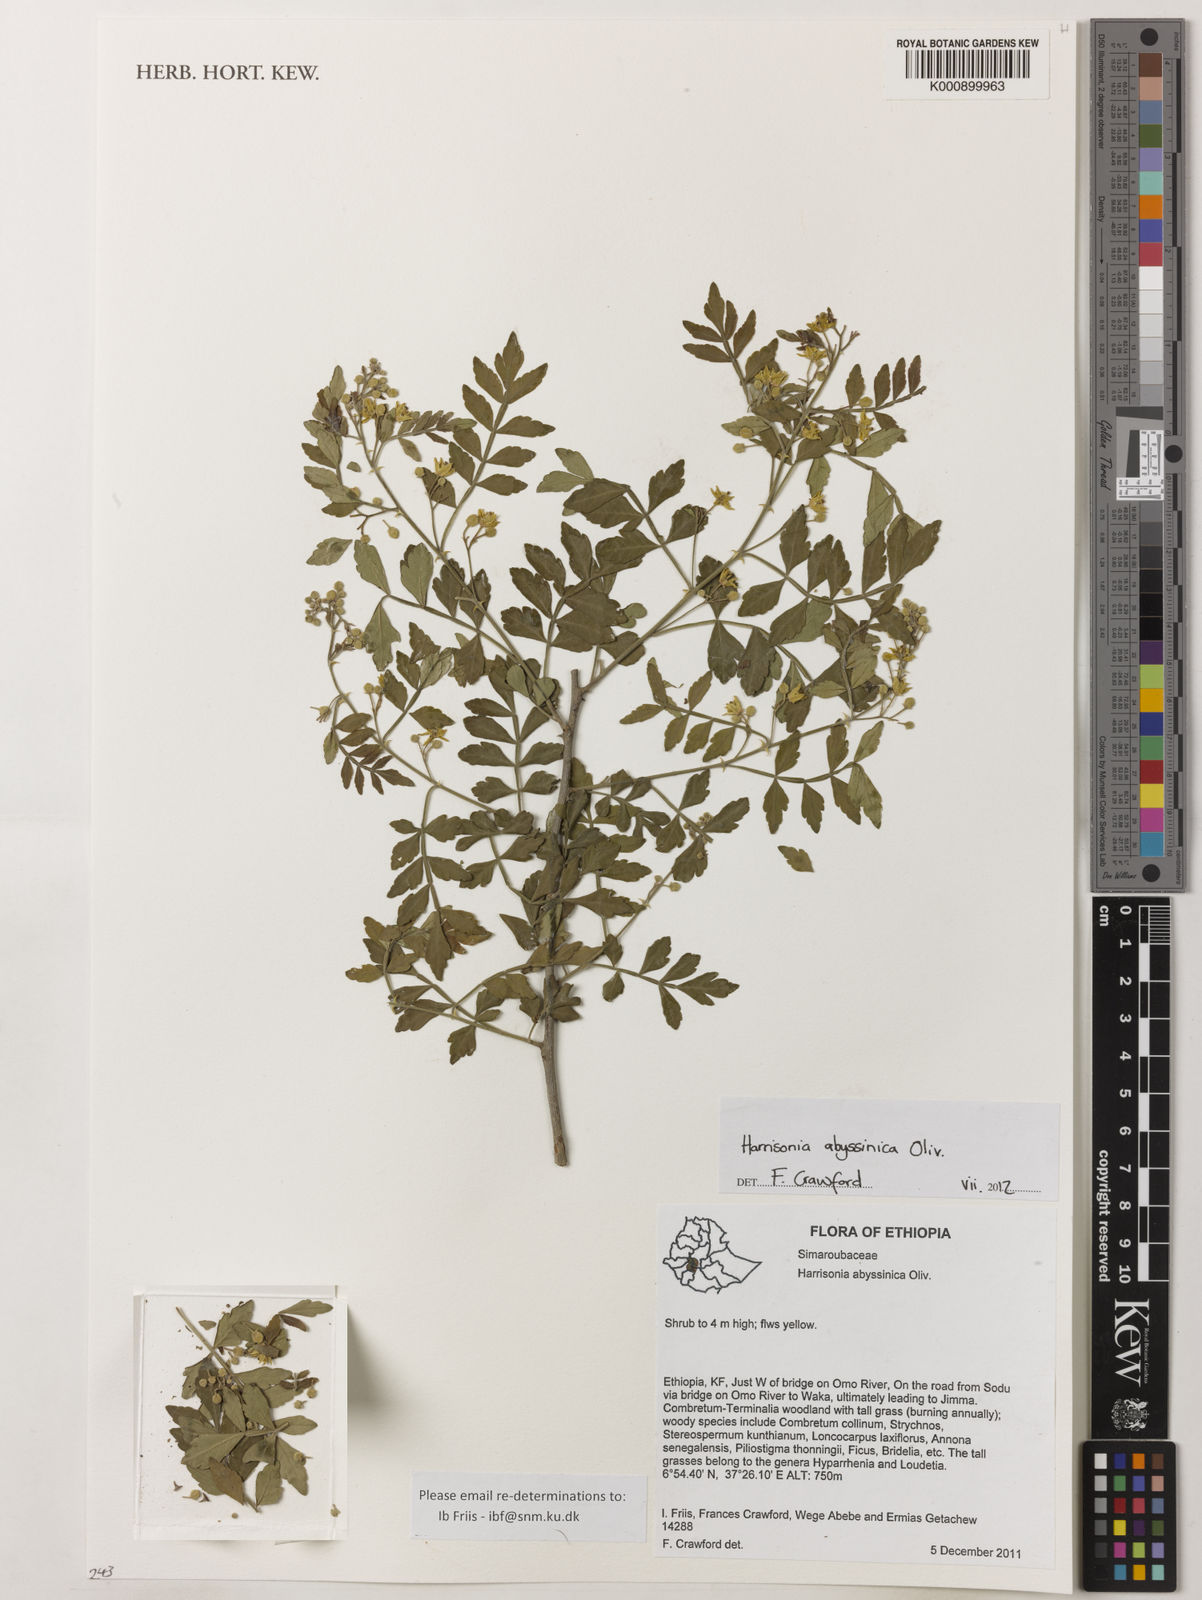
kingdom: Plantae
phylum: Tracheophyta
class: Magnoliopsida
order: Sapindales
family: Rutaceae
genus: Harrisonia
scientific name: Harrisonia abyssinica
